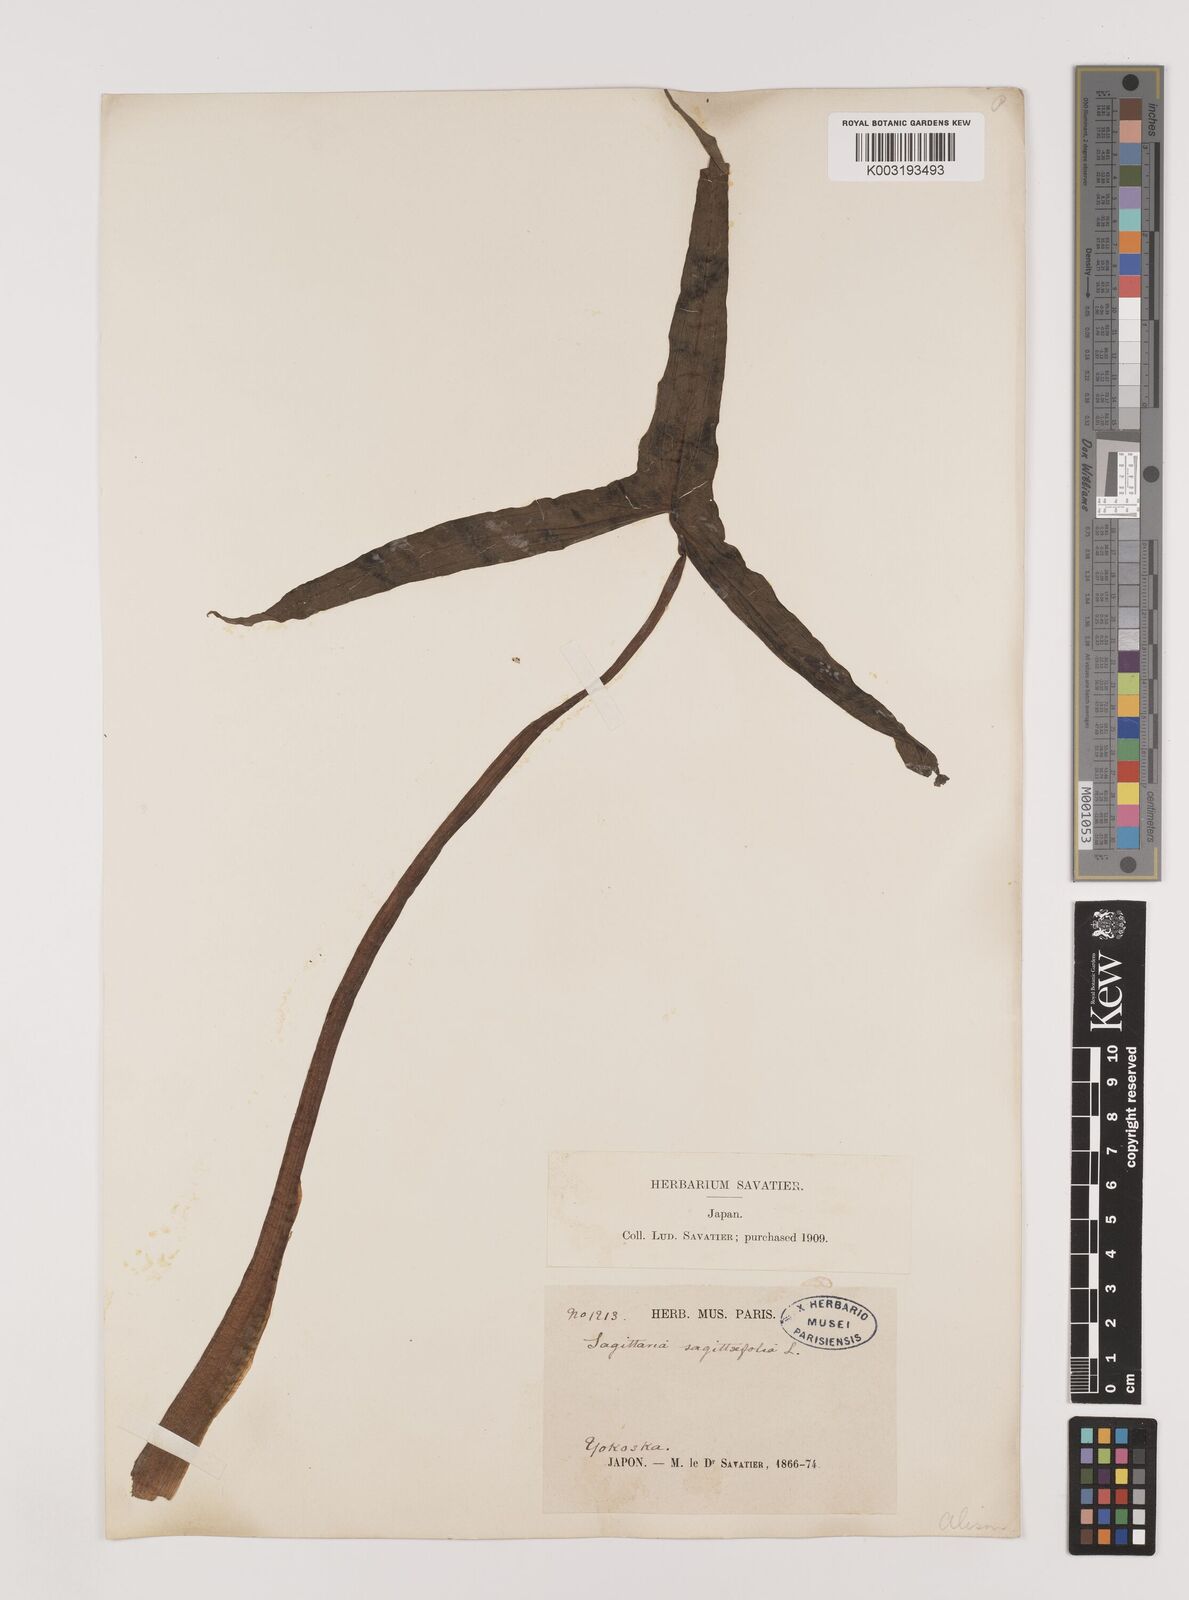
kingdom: Plantae
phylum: Tracheophyta
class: Liliopsida
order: Alismatales
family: Alismataceae
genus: Sagittaria
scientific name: Sagittaria sagittifolia
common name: Arrowhead
